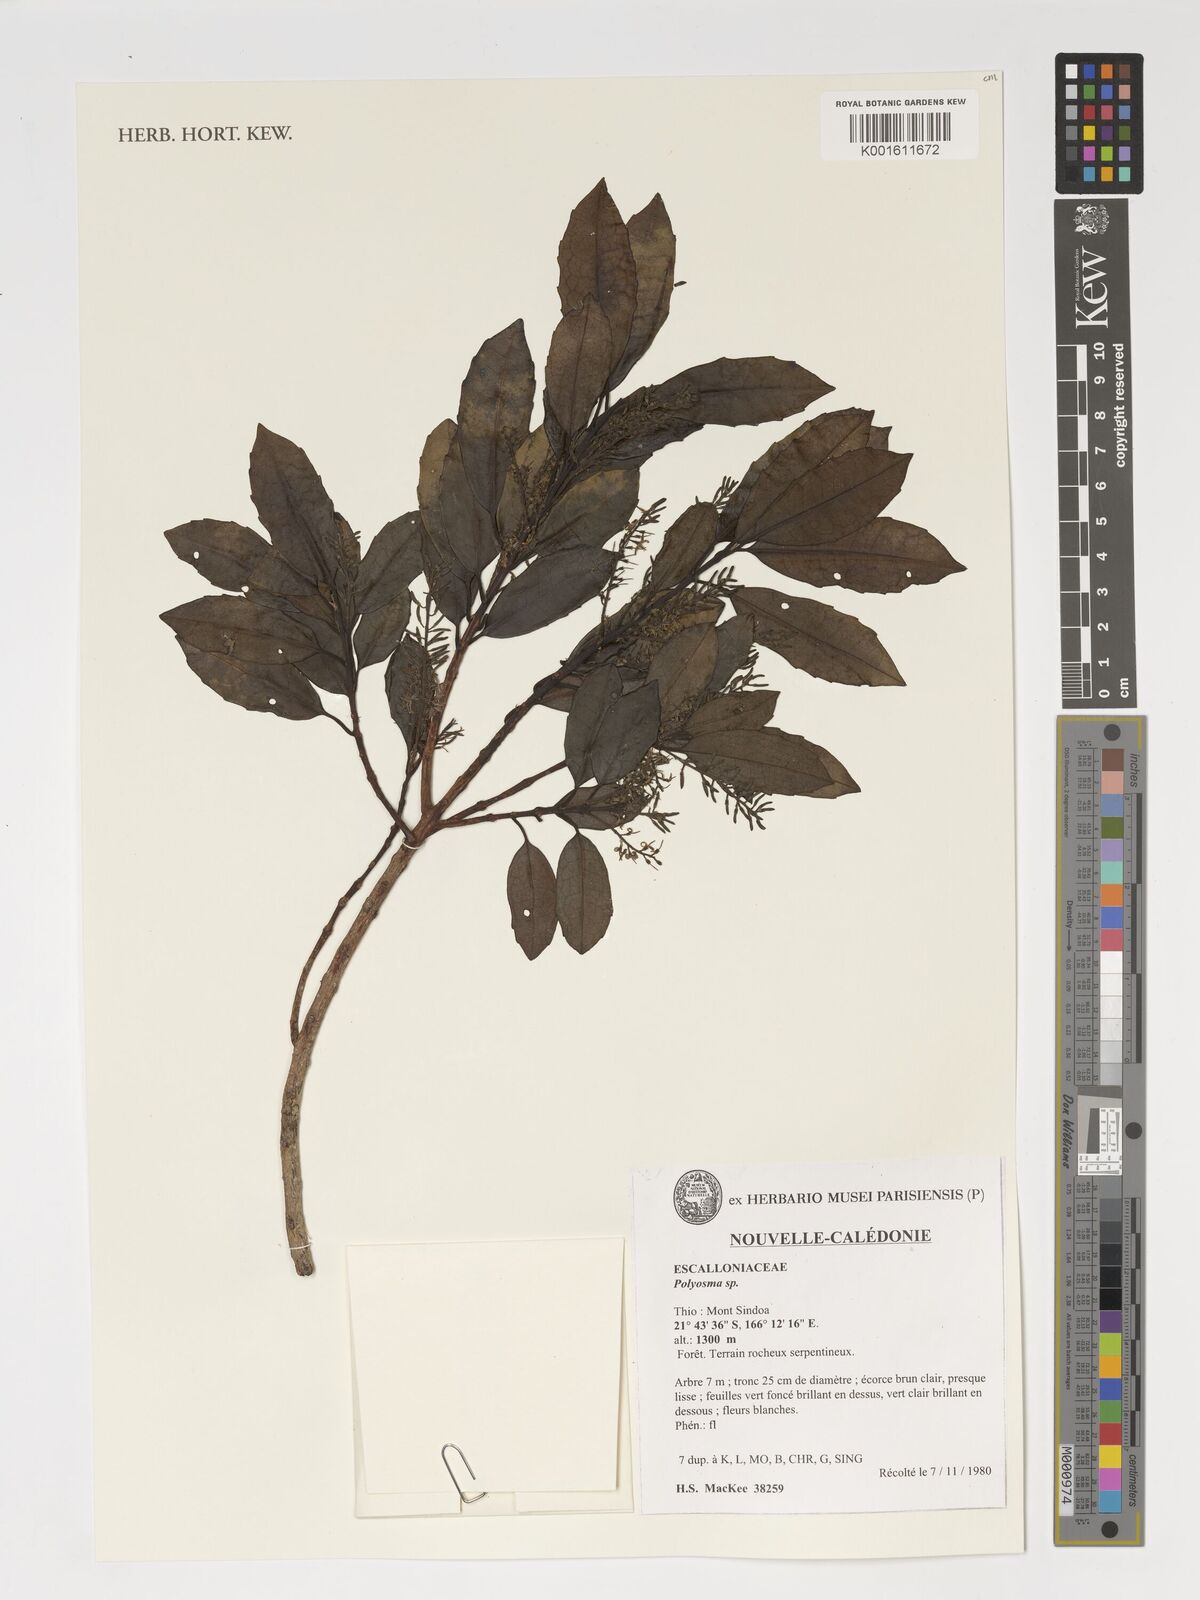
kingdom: Plantae
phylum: Tracheophyta
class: Magnoliopsida
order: Escalloniales
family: Escalloniaceae
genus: Polyosma
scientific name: Polyosma
